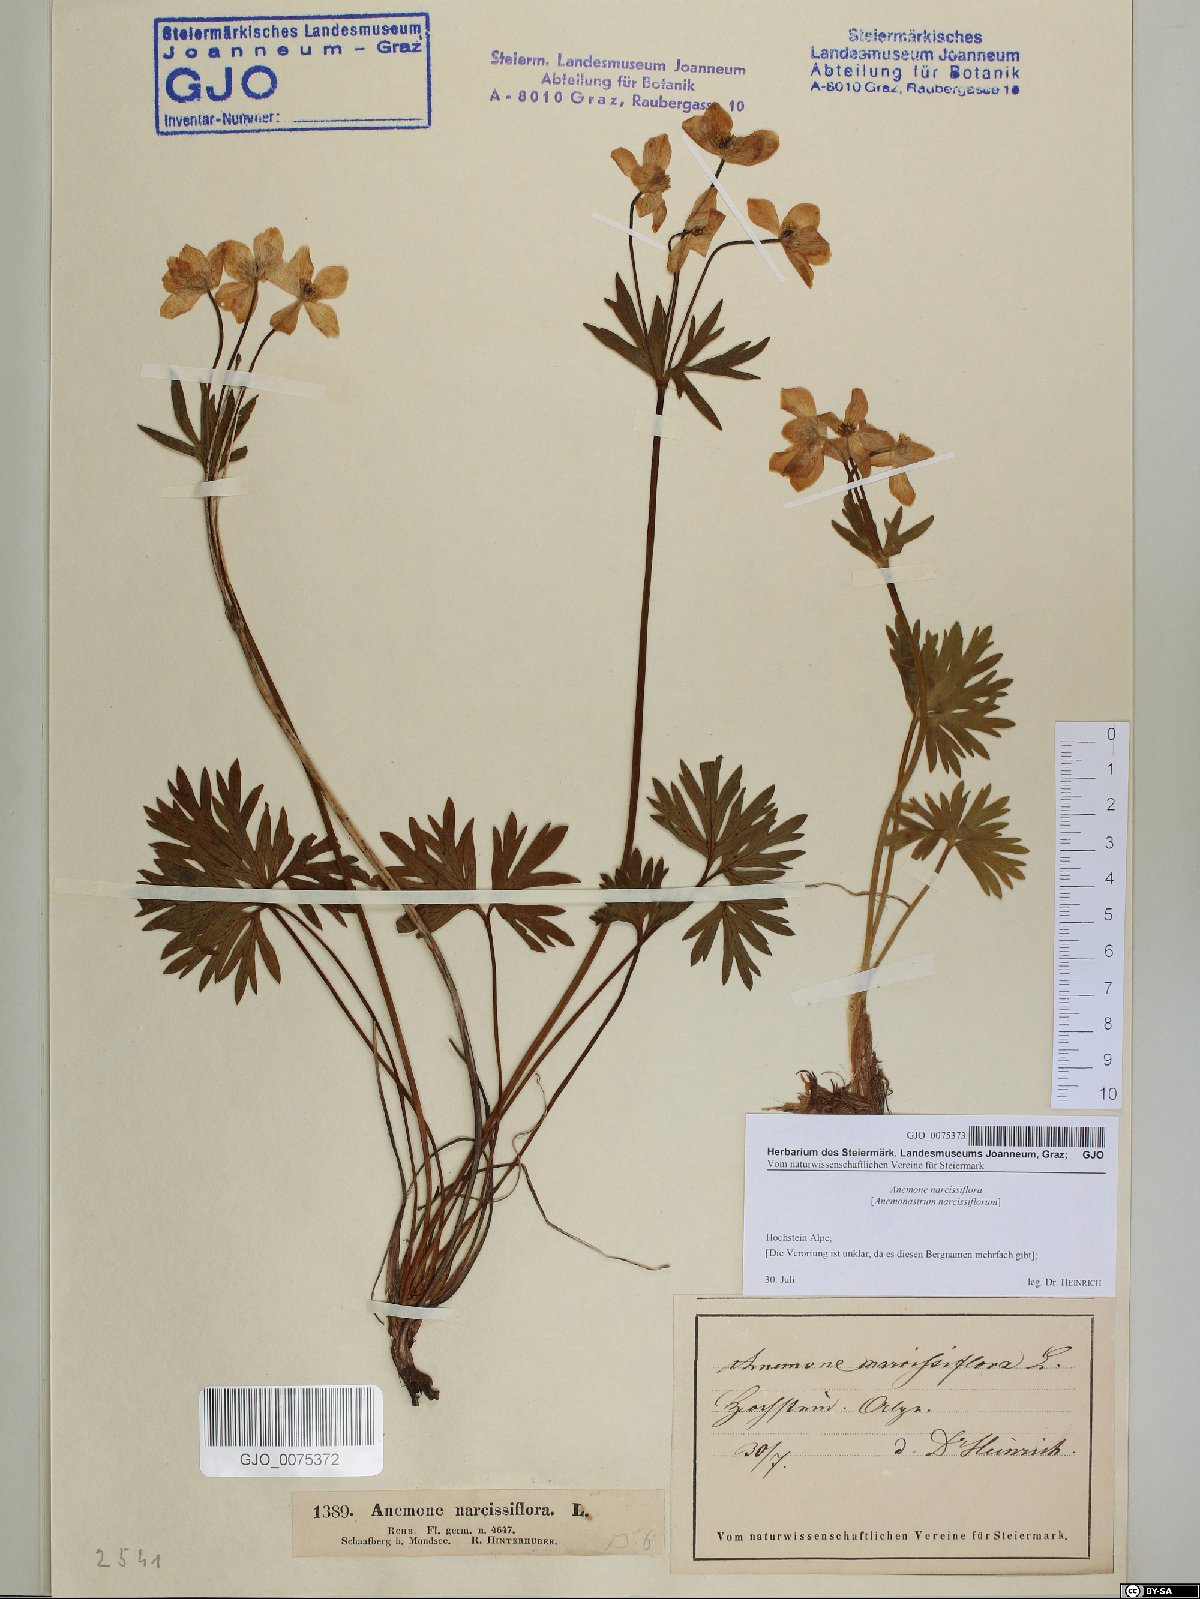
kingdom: Plantae
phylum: Tracheophyta
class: Magnoliopsida
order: Ranunculales
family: Ranunculaceae
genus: Anemonastrum
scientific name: Anemonastrum narcissiflorum
